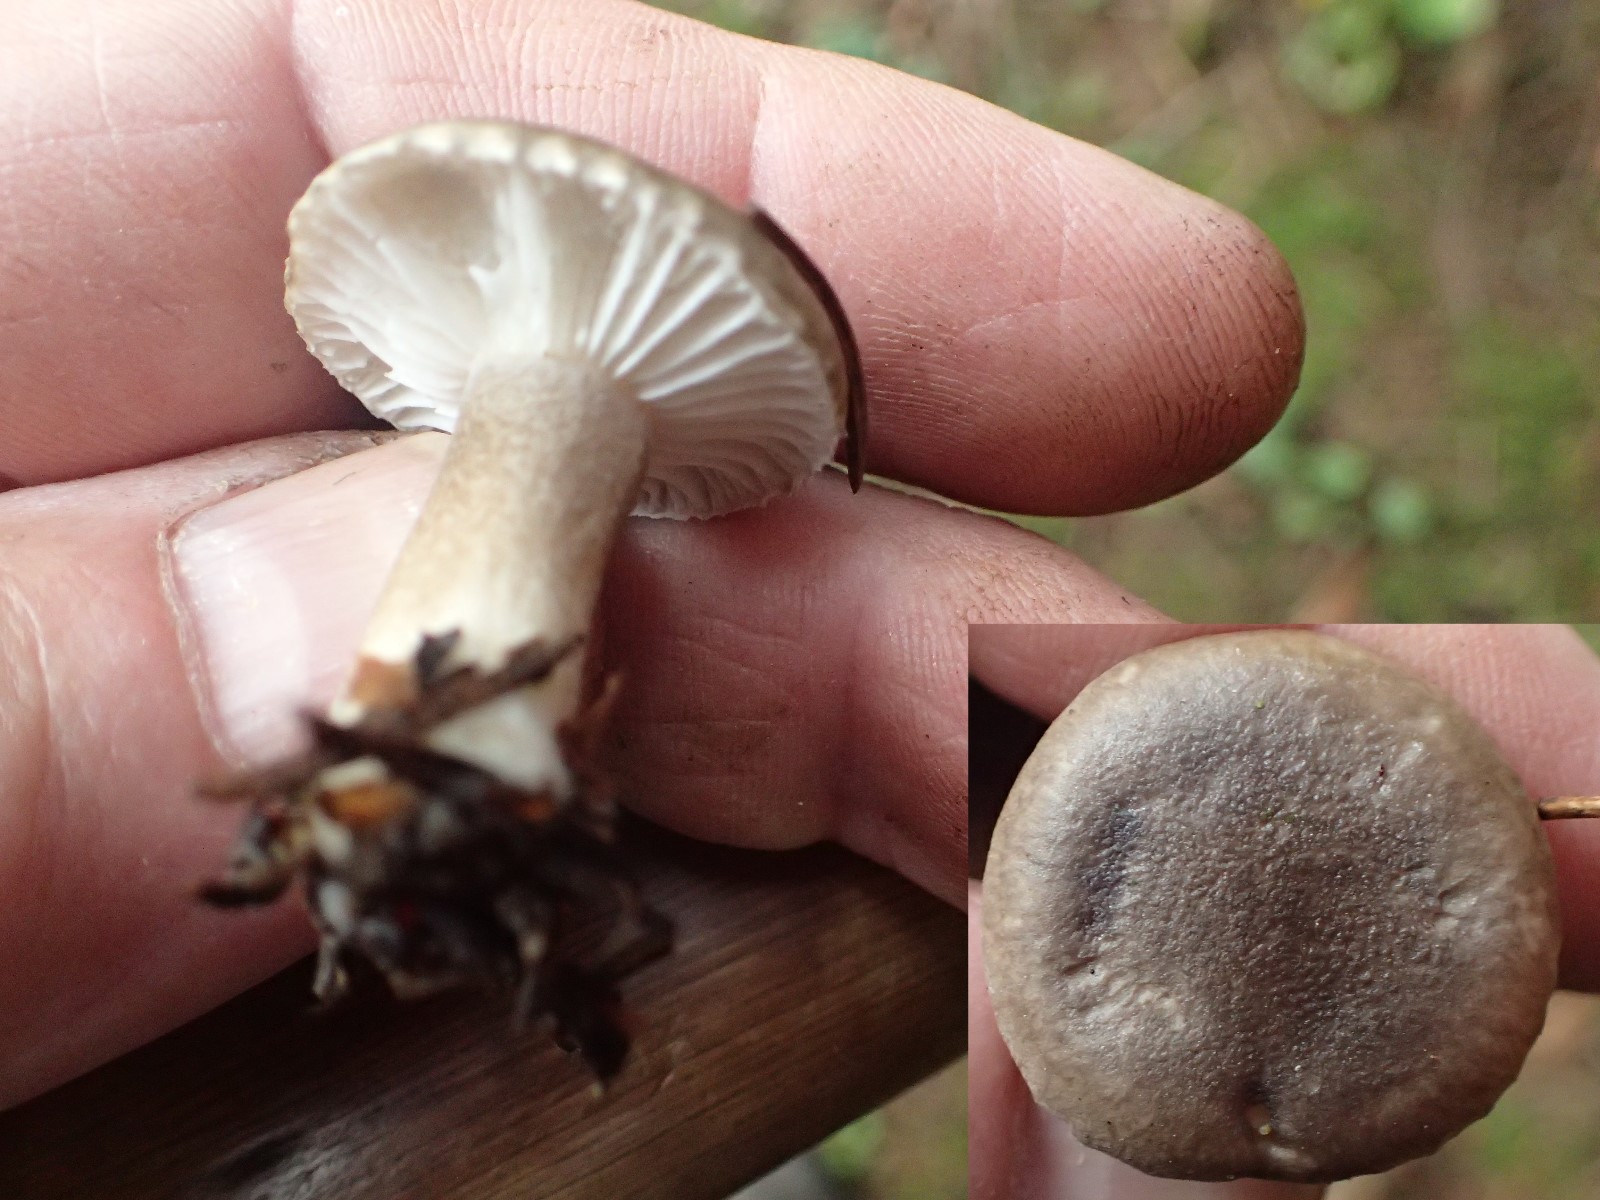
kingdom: Fungi
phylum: Basidiomycota
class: Agaricomycetes
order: Agaricales
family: Hygrophoraceae
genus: Hygrophorus
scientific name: Hygrophorus pustulatus
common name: mørkprikket sneglehat
